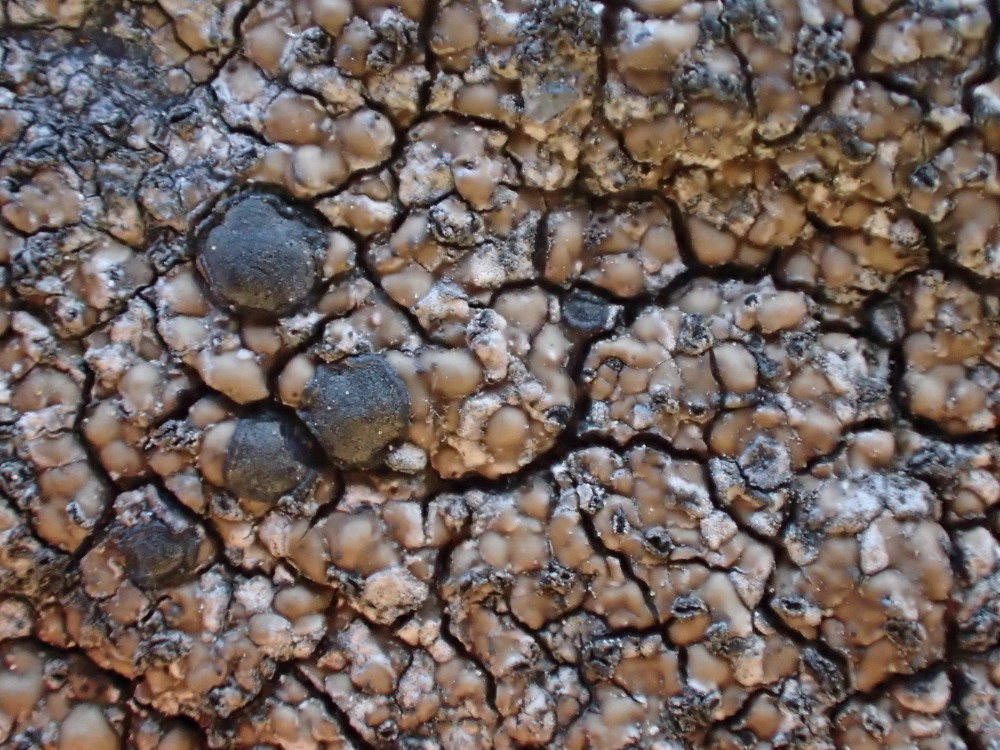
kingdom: Fungi
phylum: Ascomycota
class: Lecanoromycetes
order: Lecideales
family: Lecideaceae
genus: Lecidea
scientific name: Lecidea fuscoatra
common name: rudret skivelav
